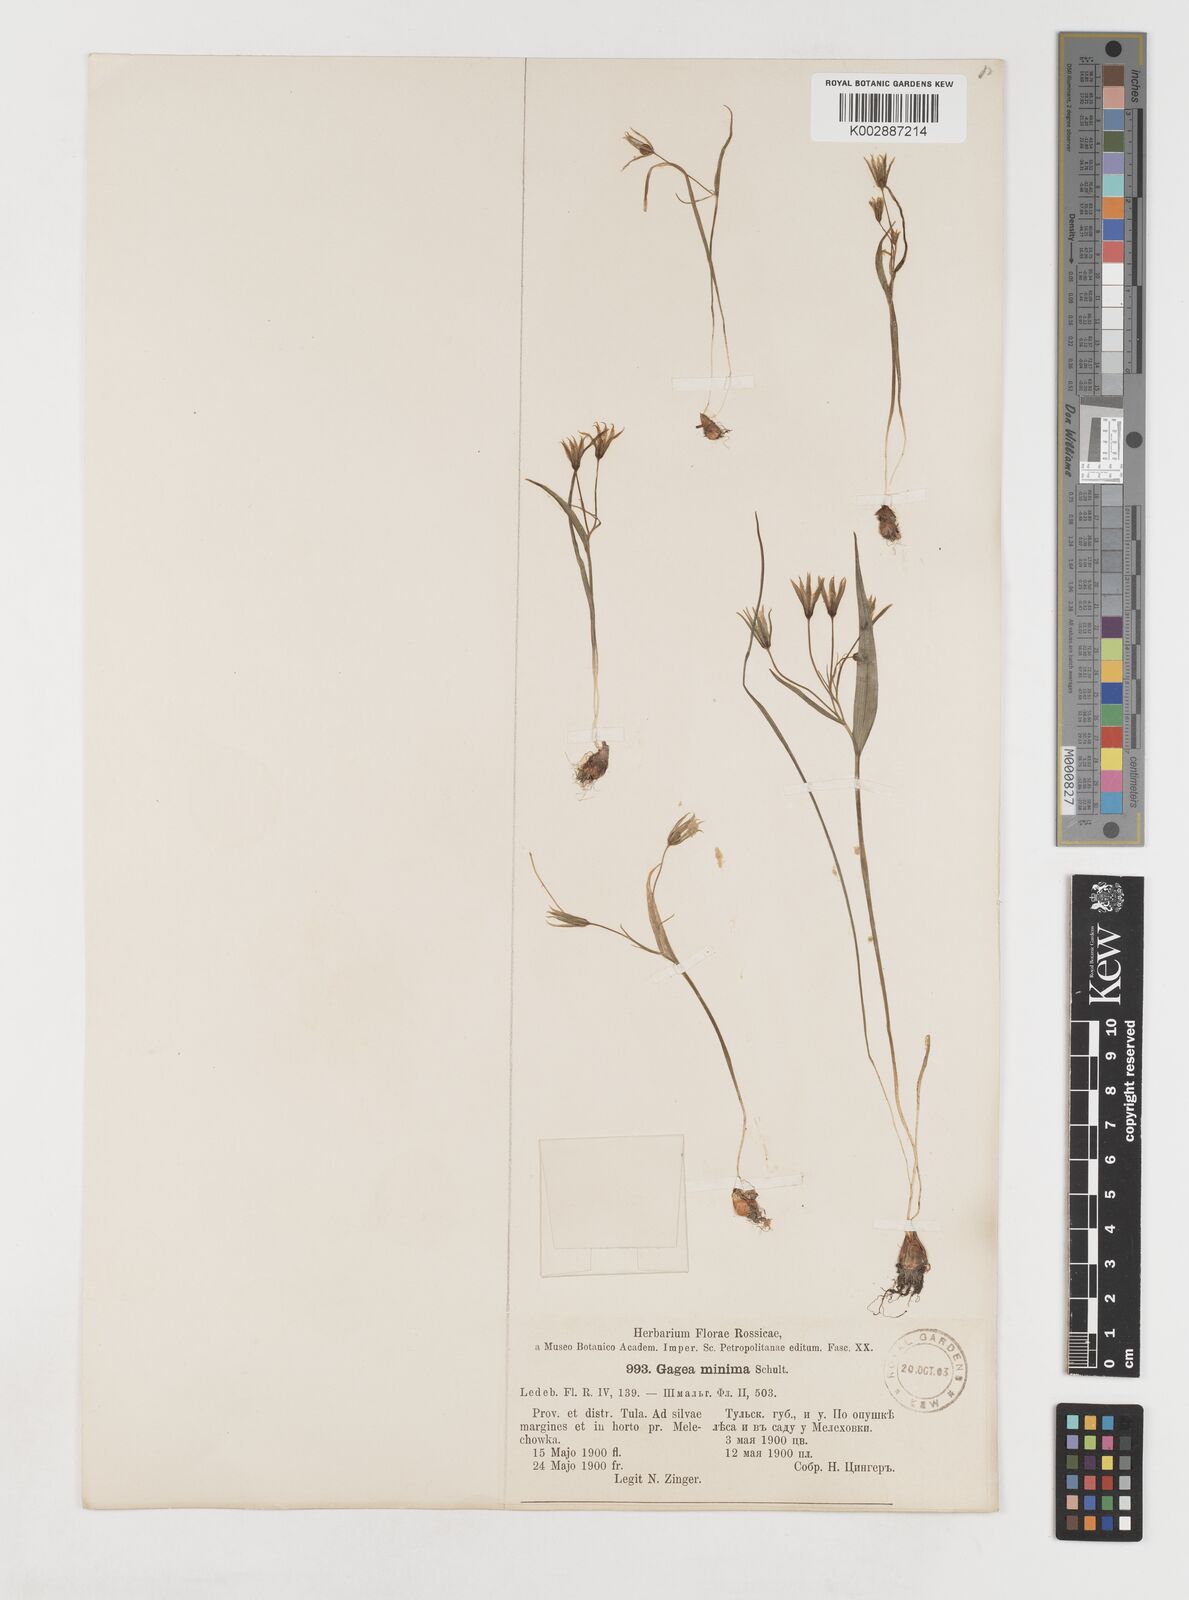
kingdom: Plantae
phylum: Tracheophyta
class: Liliopsida
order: Liliales
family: Liliaceae
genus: Gagea
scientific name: Gagea minima
